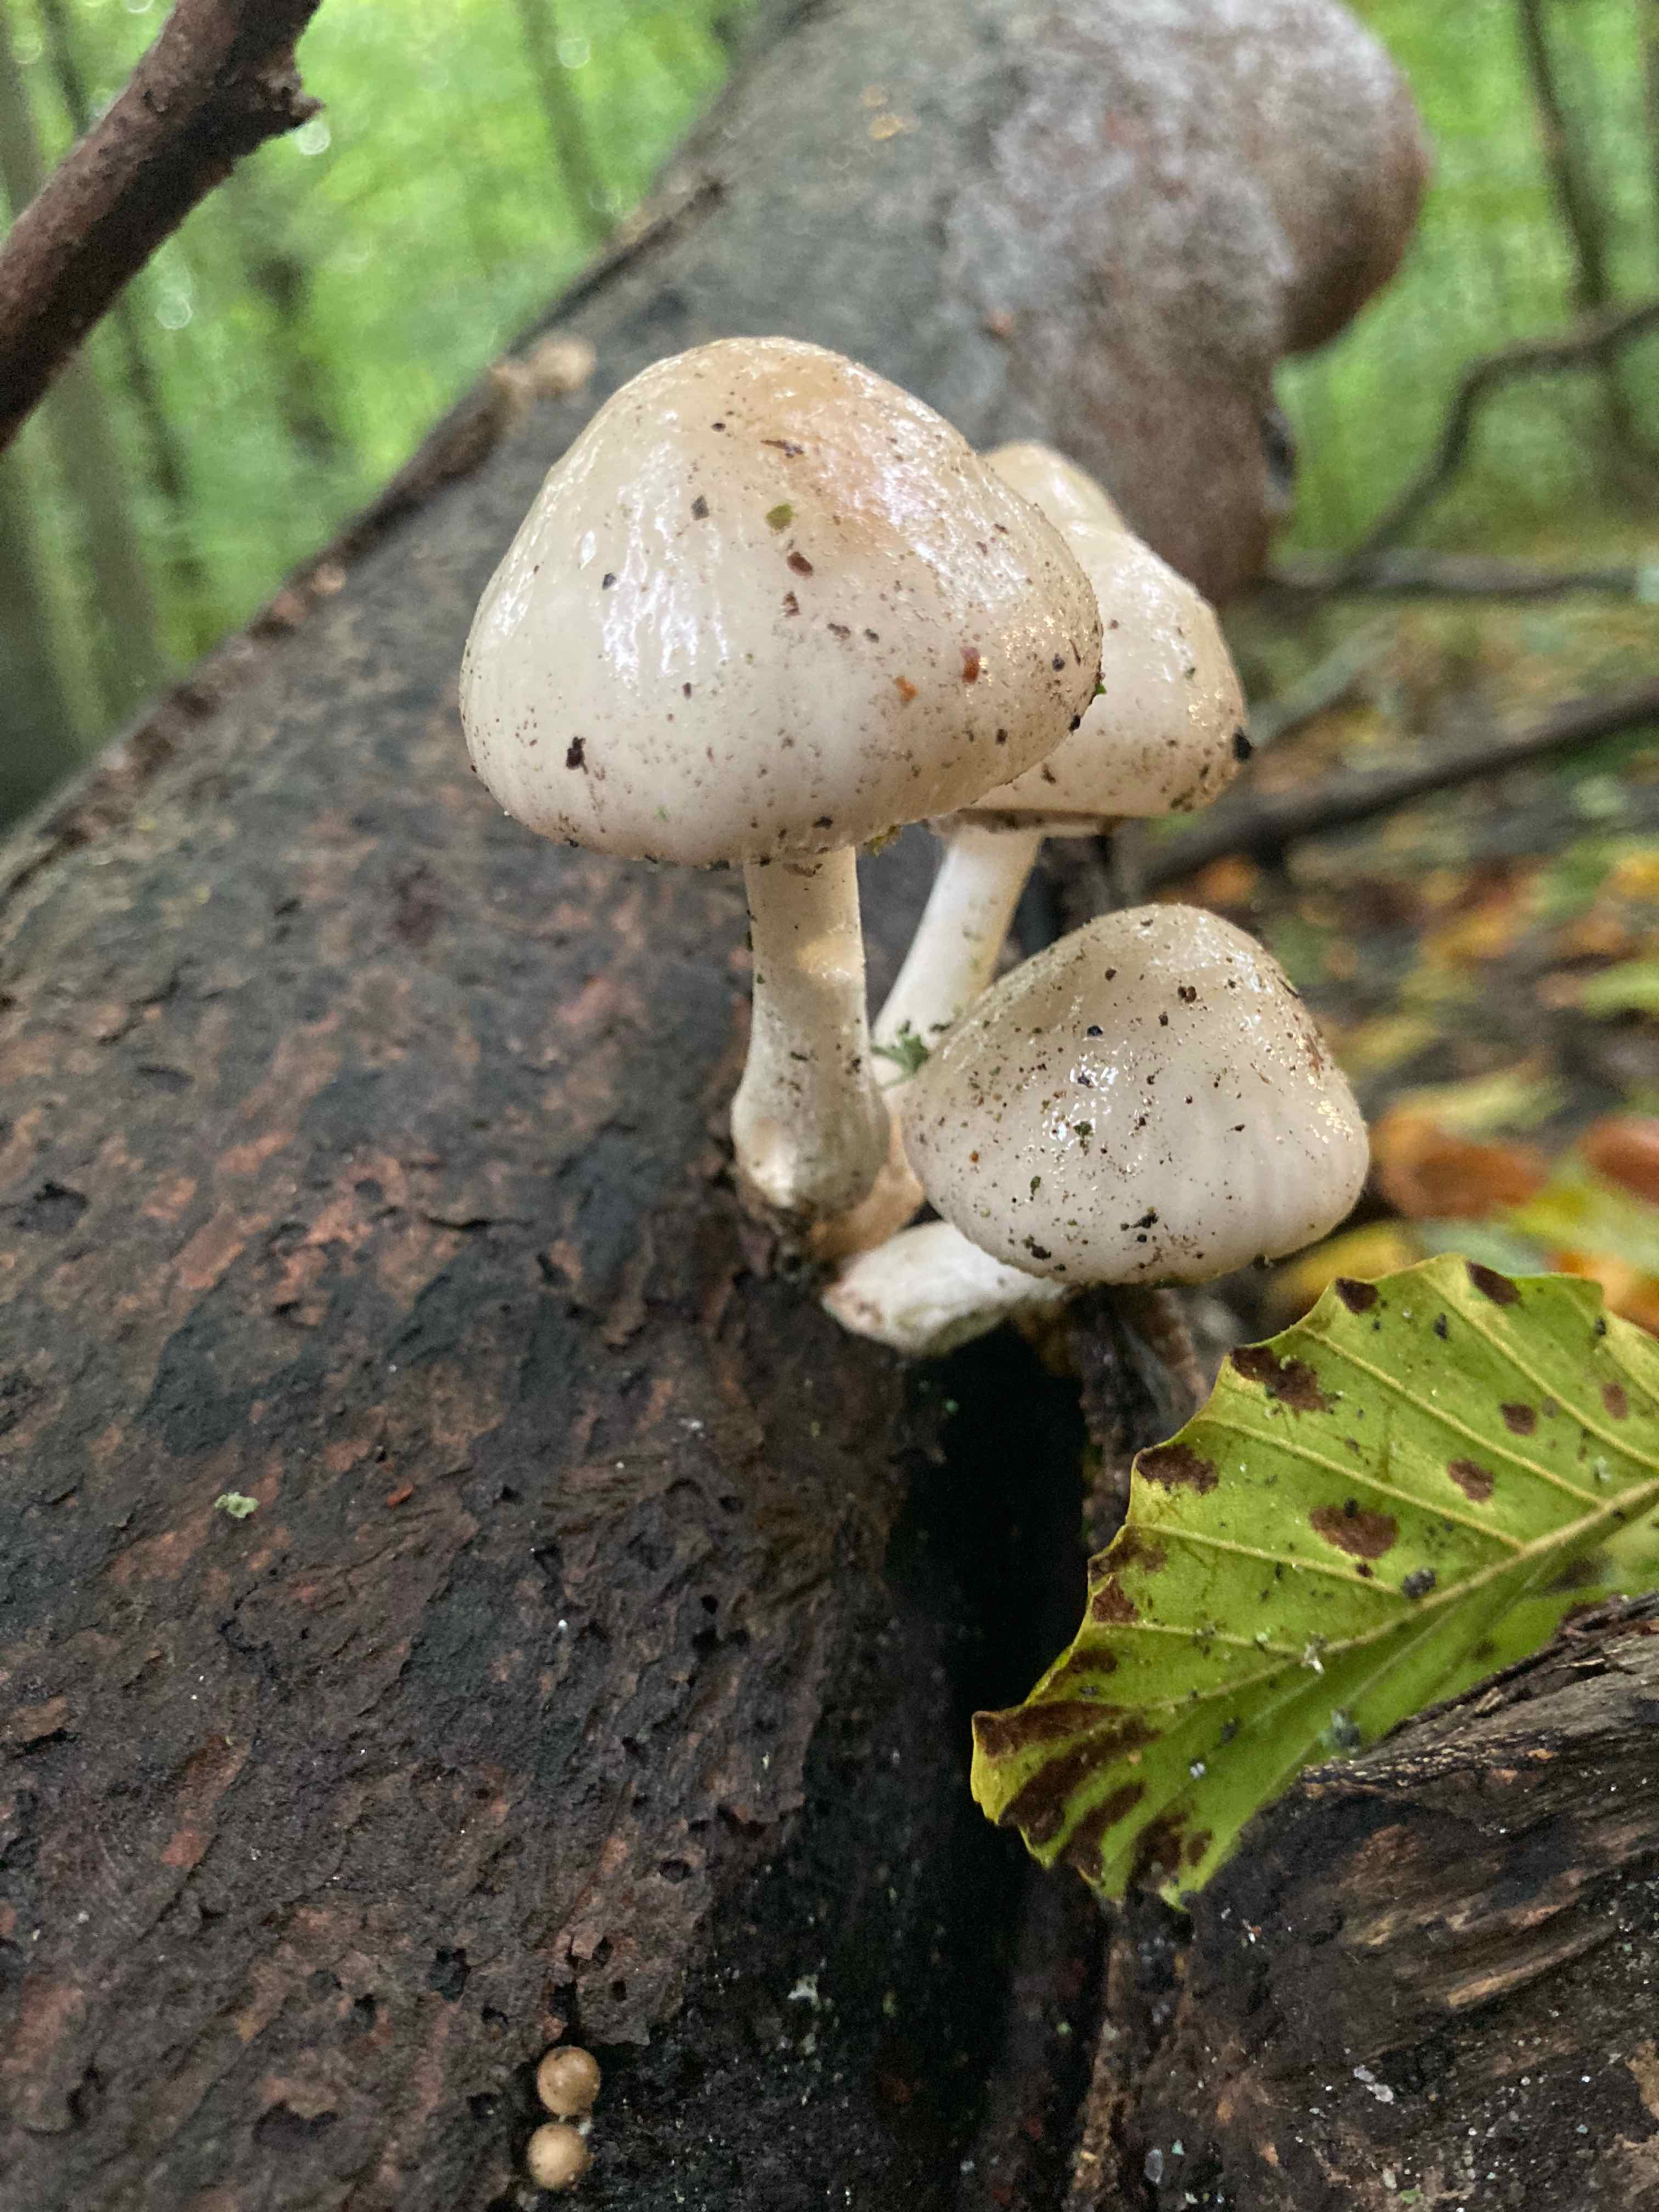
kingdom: Fungi
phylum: Basidiomycota
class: Agaricomycetes
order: Agaricales
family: Physalacriaceae
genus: Mucidula
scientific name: Mucidula mucida
